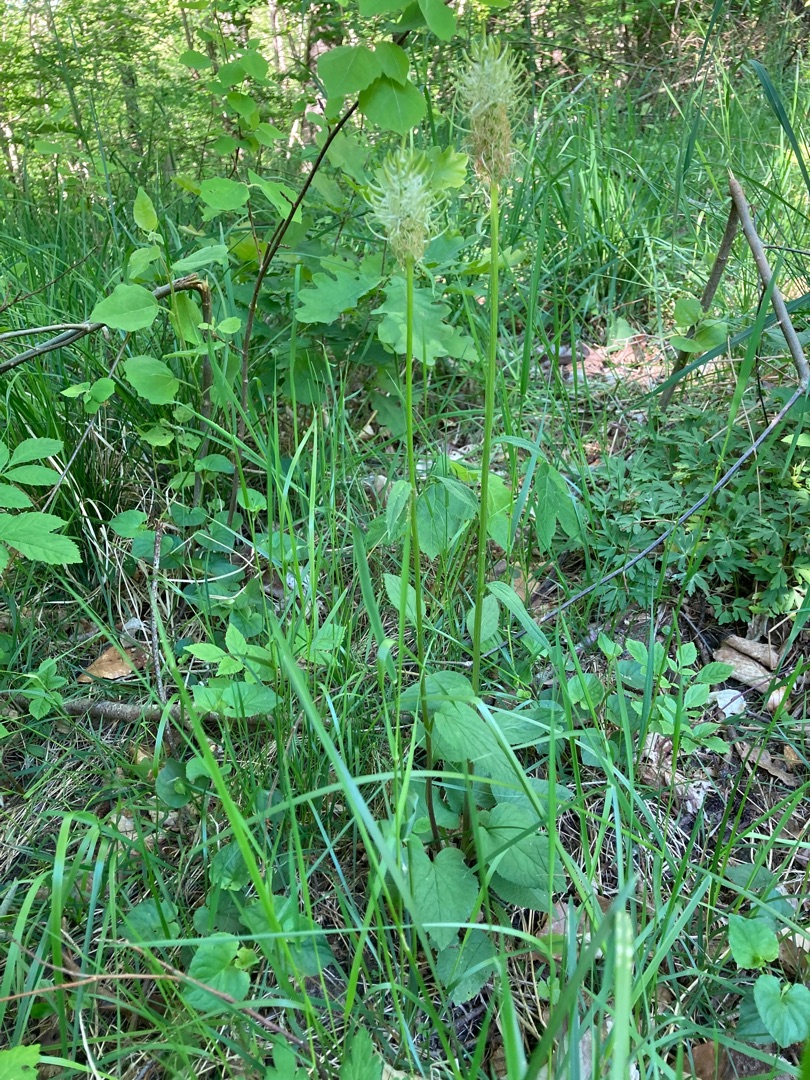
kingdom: Plantae
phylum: Tracheophyta
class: Magnoliopsida
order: Asterales
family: Campanulaceae
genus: Phyteuma
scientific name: Phyteuma spicatum
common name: Aks-rapunsel
